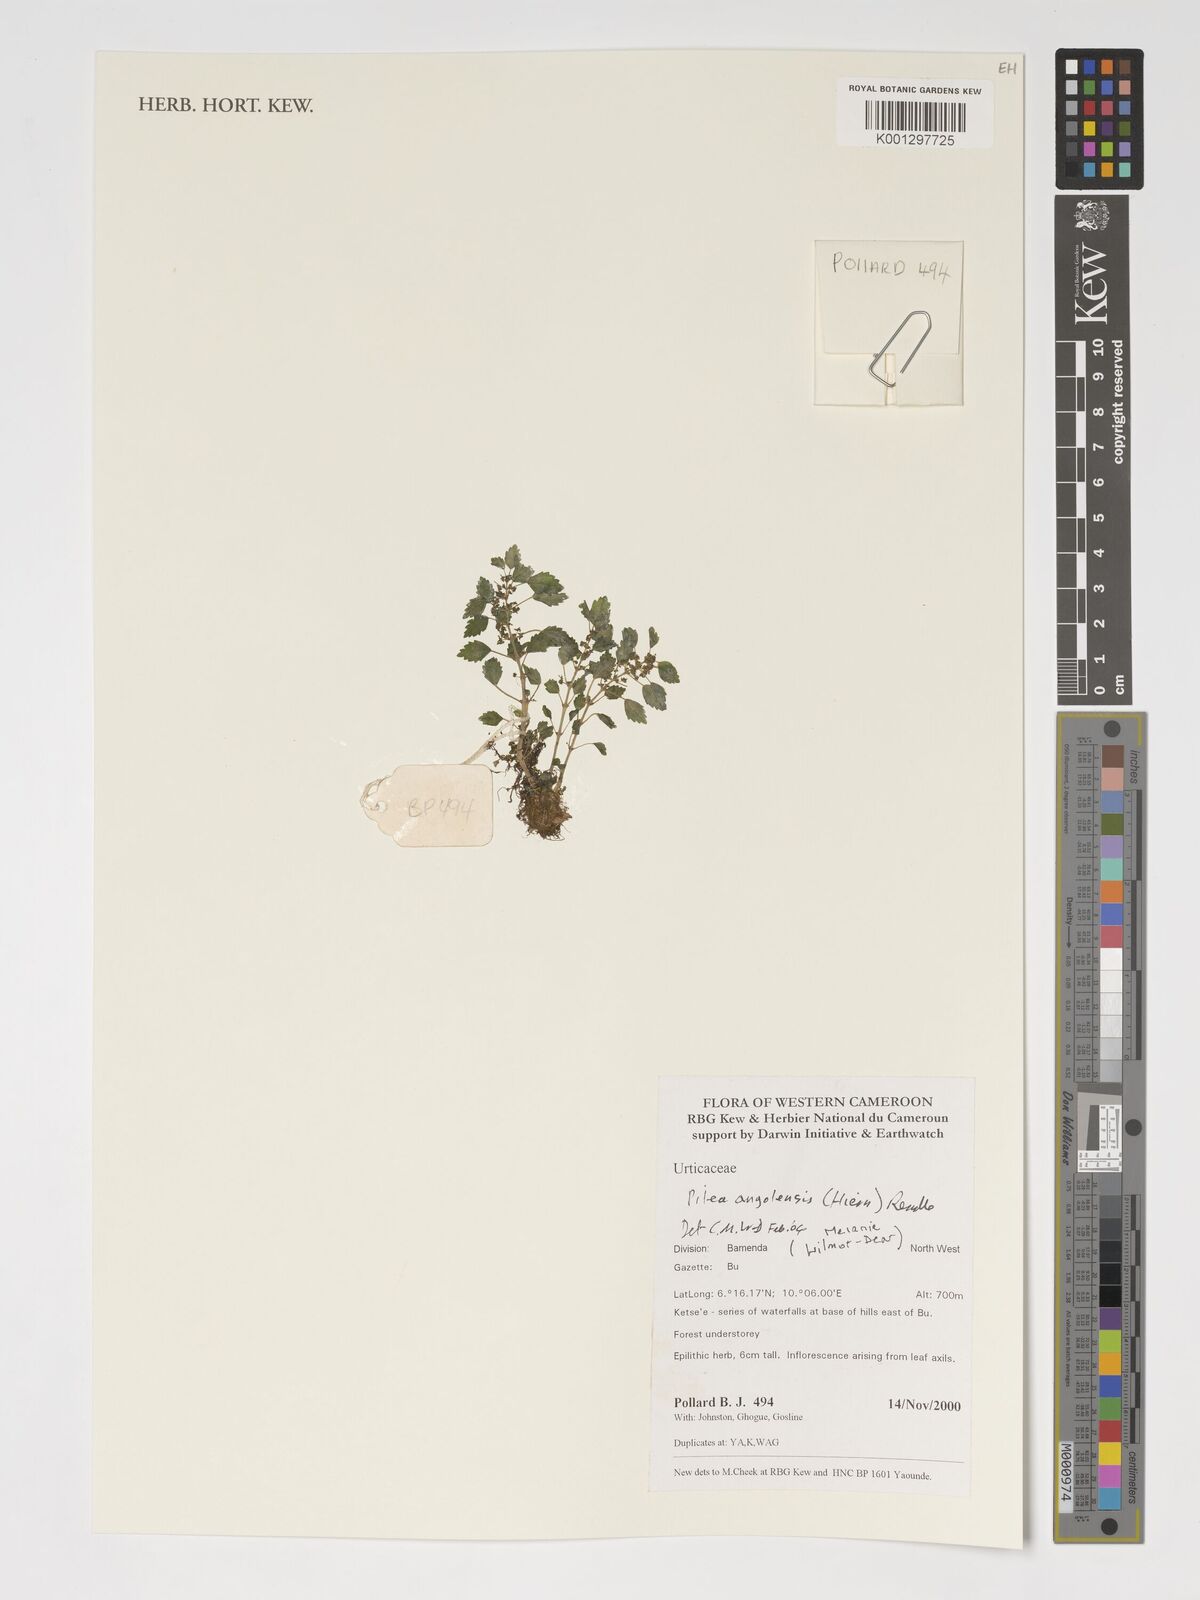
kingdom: Plantae
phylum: Tracheophyta
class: Magnoliopsida
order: Rosales
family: Urticaceae
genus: Pilea
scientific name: Pilea angolensis
